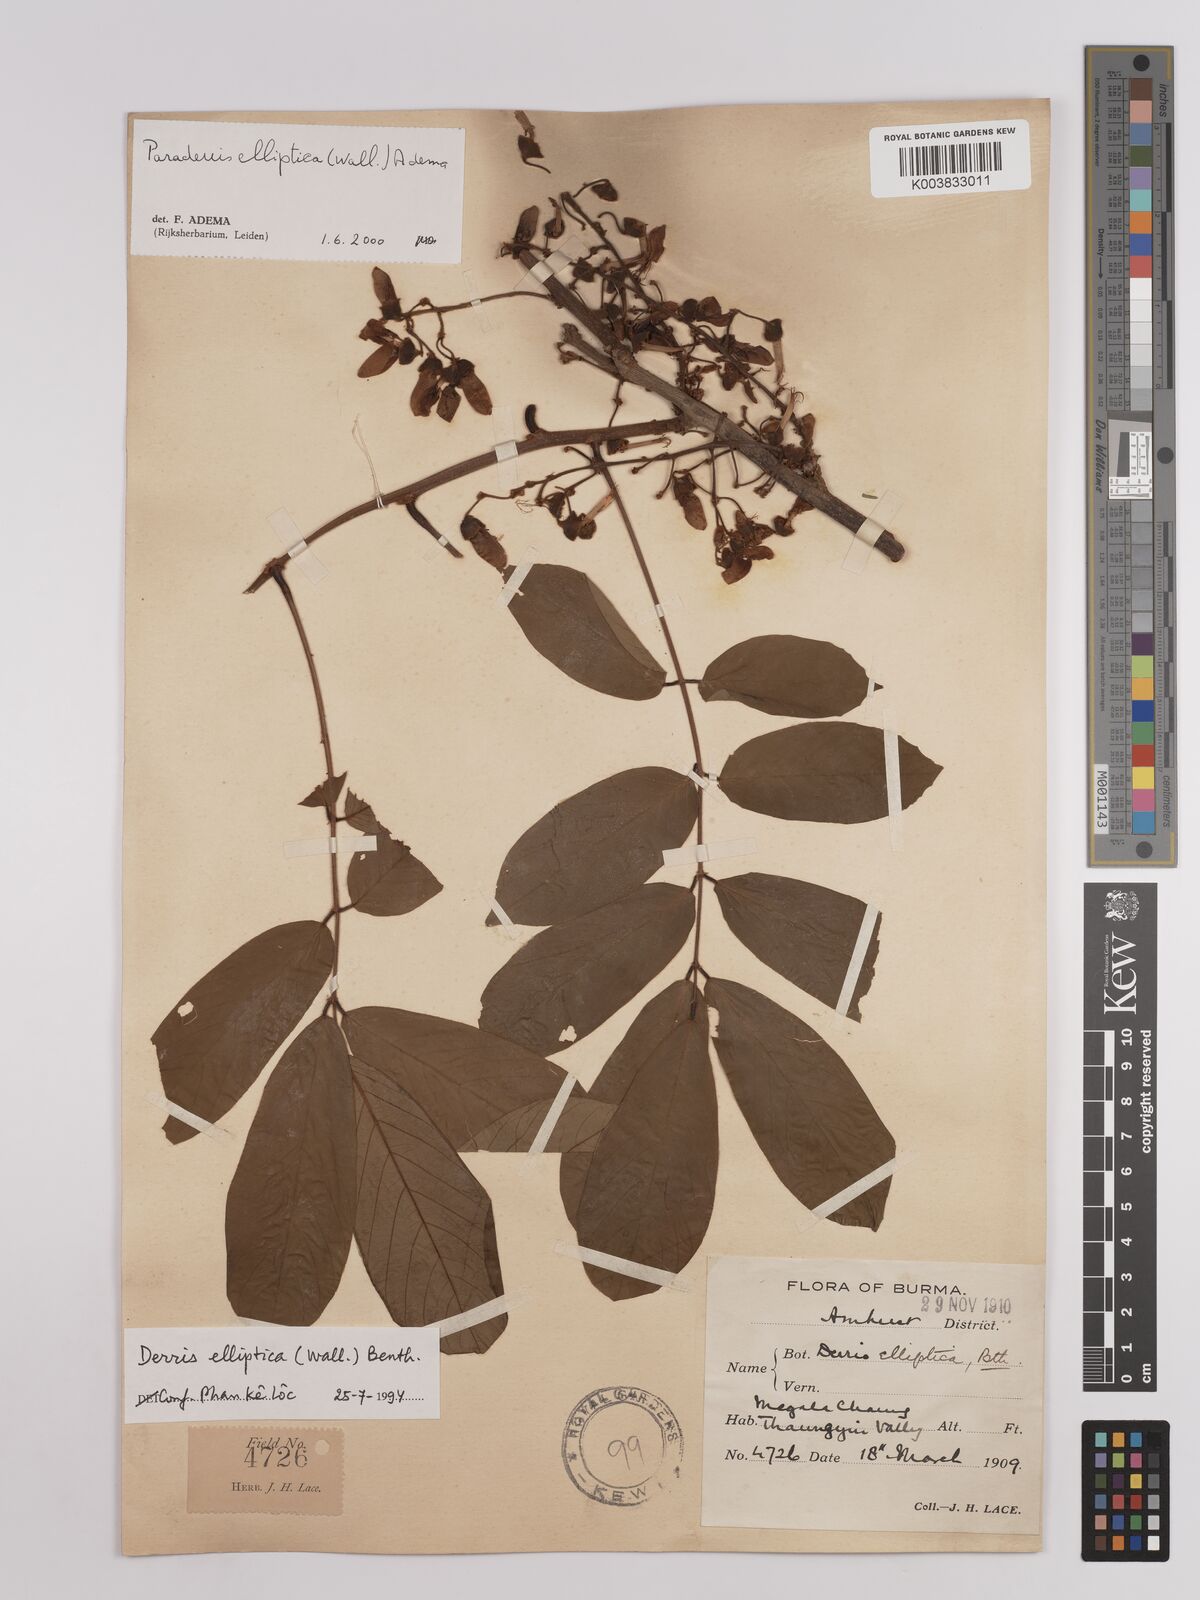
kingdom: Plantae
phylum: Tracheophyta
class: Magnoliopsida
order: Fabales
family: Fabaceae
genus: Derris
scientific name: Derris elliptica
